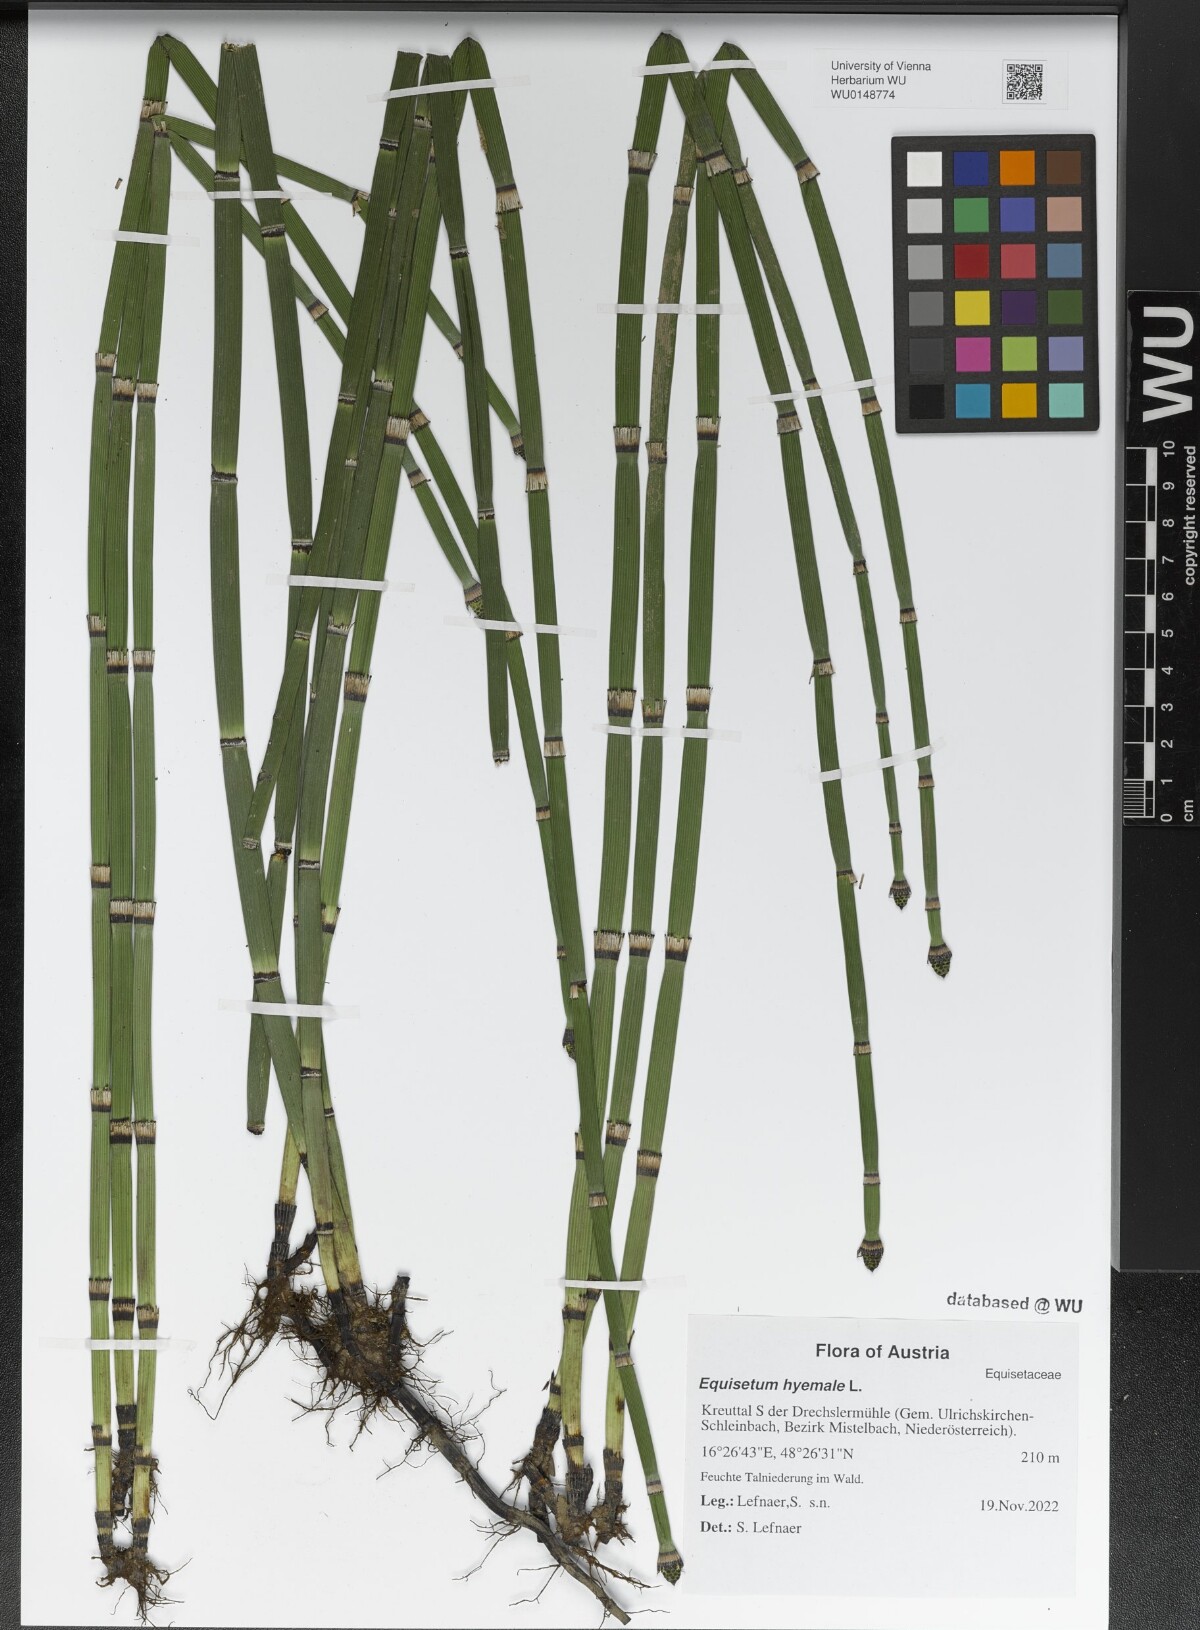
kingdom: Plantae
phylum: Tracheophyta
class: Polypodiopsida
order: Equisetales
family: Equisetaceae
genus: Equisetum
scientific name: Equisetum hyemale
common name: Rough horsetail
